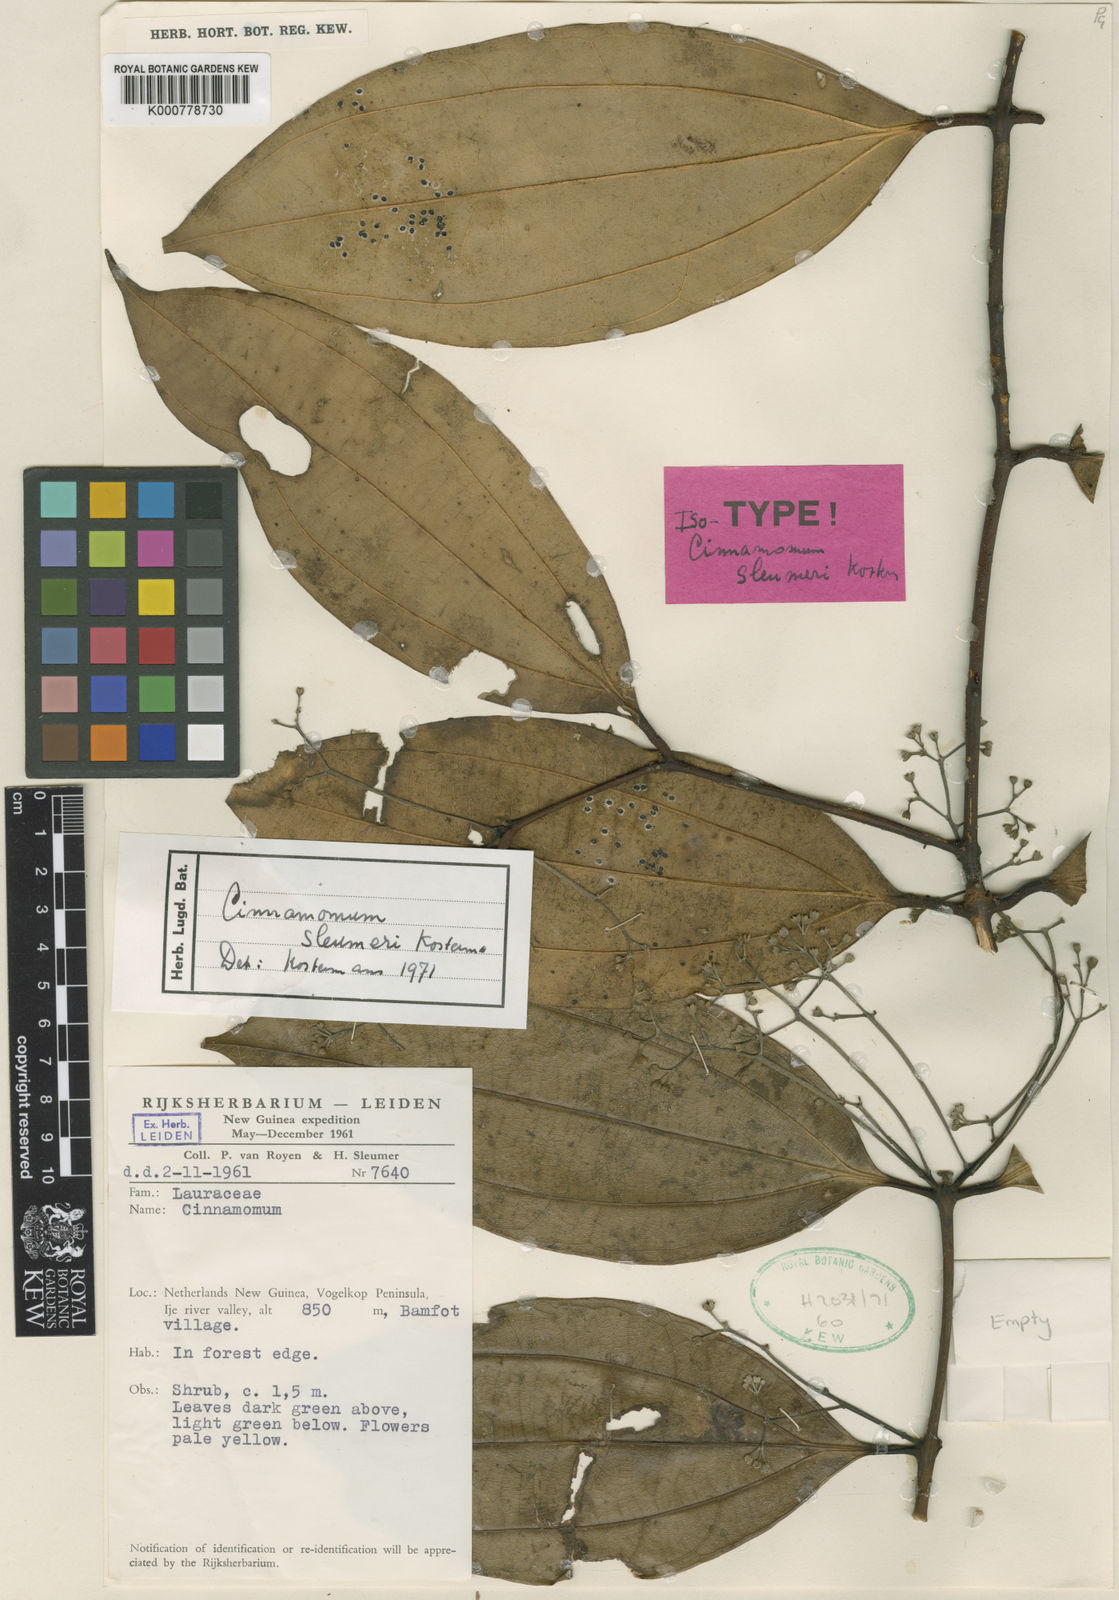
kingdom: Plantae
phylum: Tracheophyta
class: Magnoliopsida
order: Laurales
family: Lauraceae
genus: Cinnamomum
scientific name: Cinnamomum sleumeri
